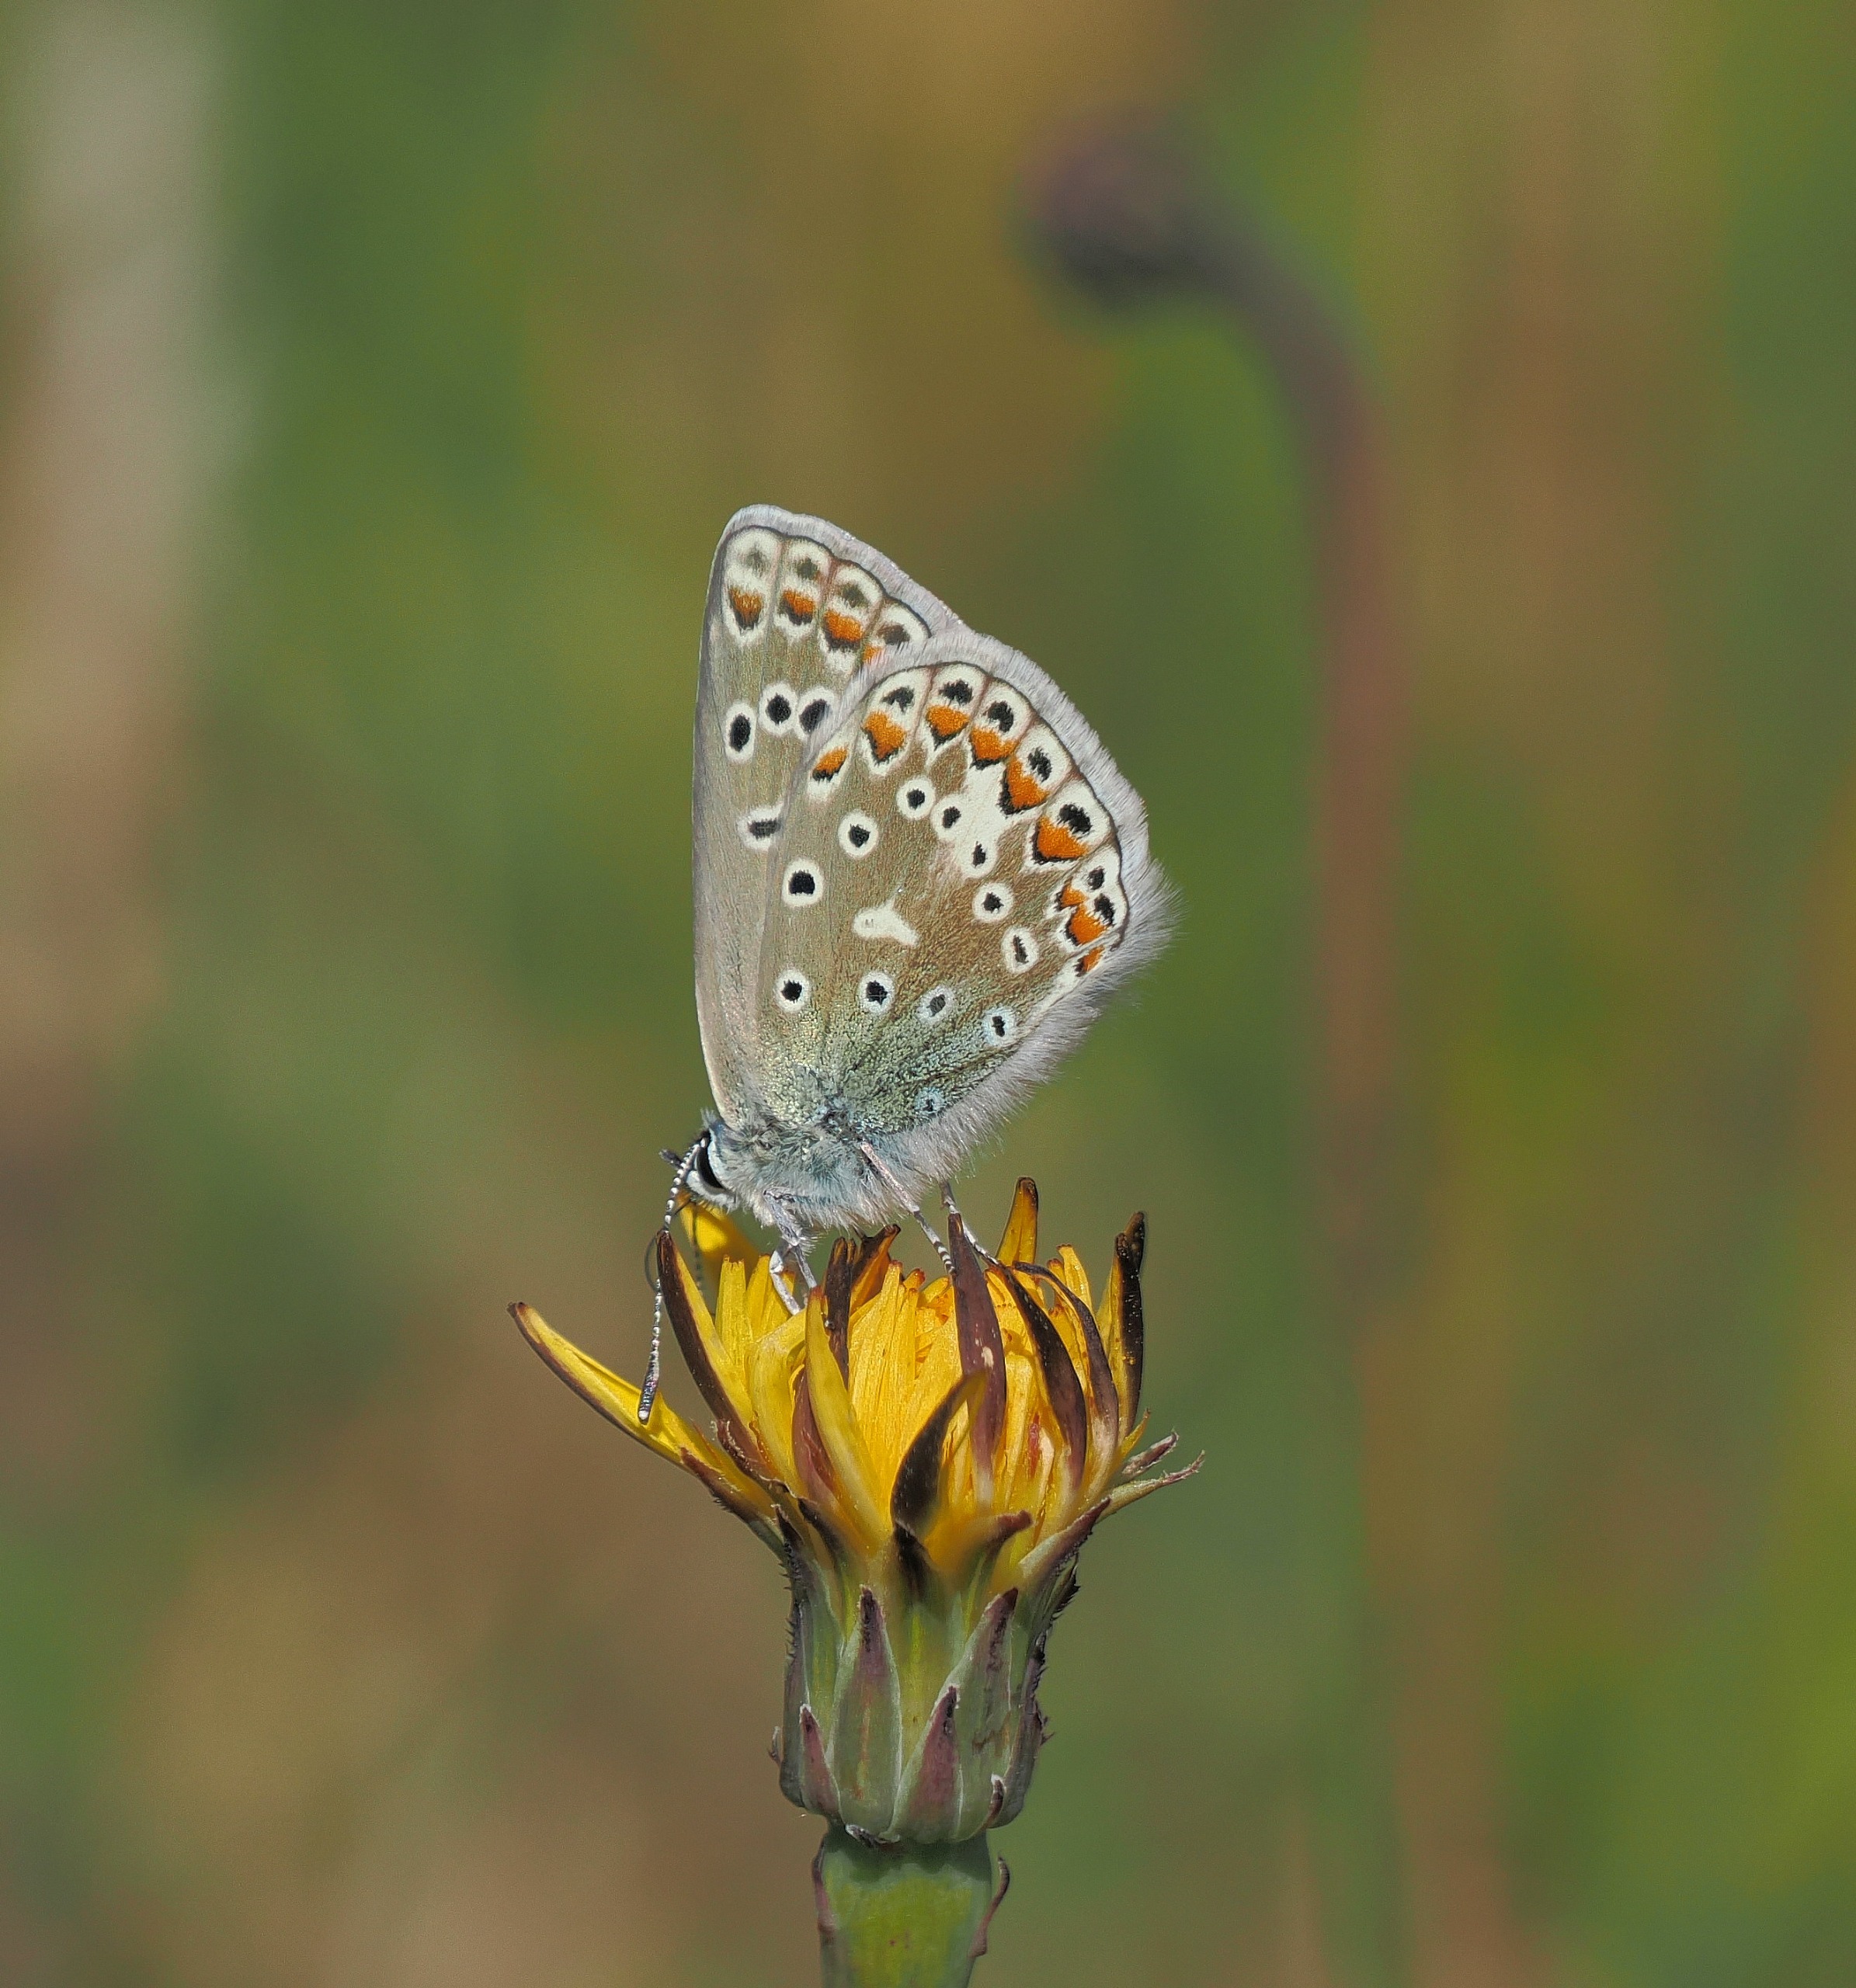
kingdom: Animalia
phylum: Arthropoda
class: Insecta
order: Lepidoptera
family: Lycaenidae
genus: Polyommatus
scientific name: Polyommatus icarus
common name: Almindelig blåfugl
